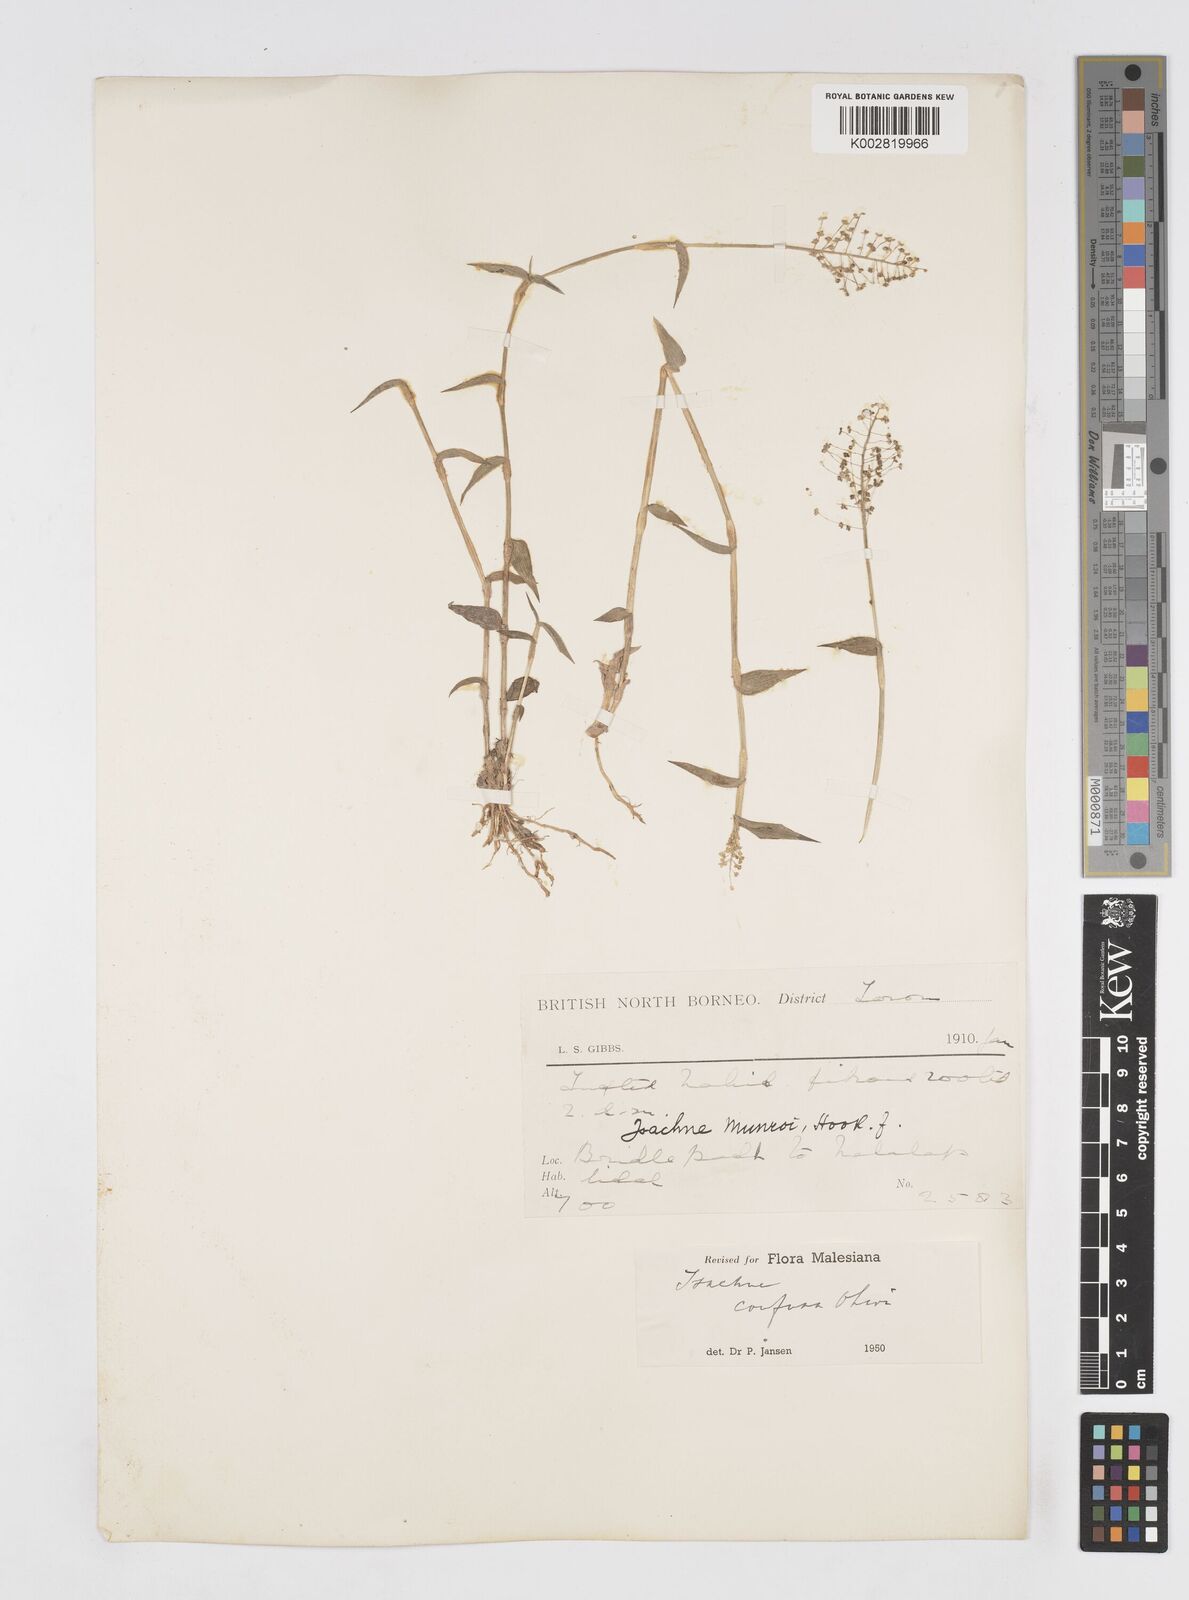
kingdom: Plantae
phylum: Tracheophyta
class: Liliopsida
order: Poales
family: Poaceae
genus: Isachne
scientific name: Isachne confusa
